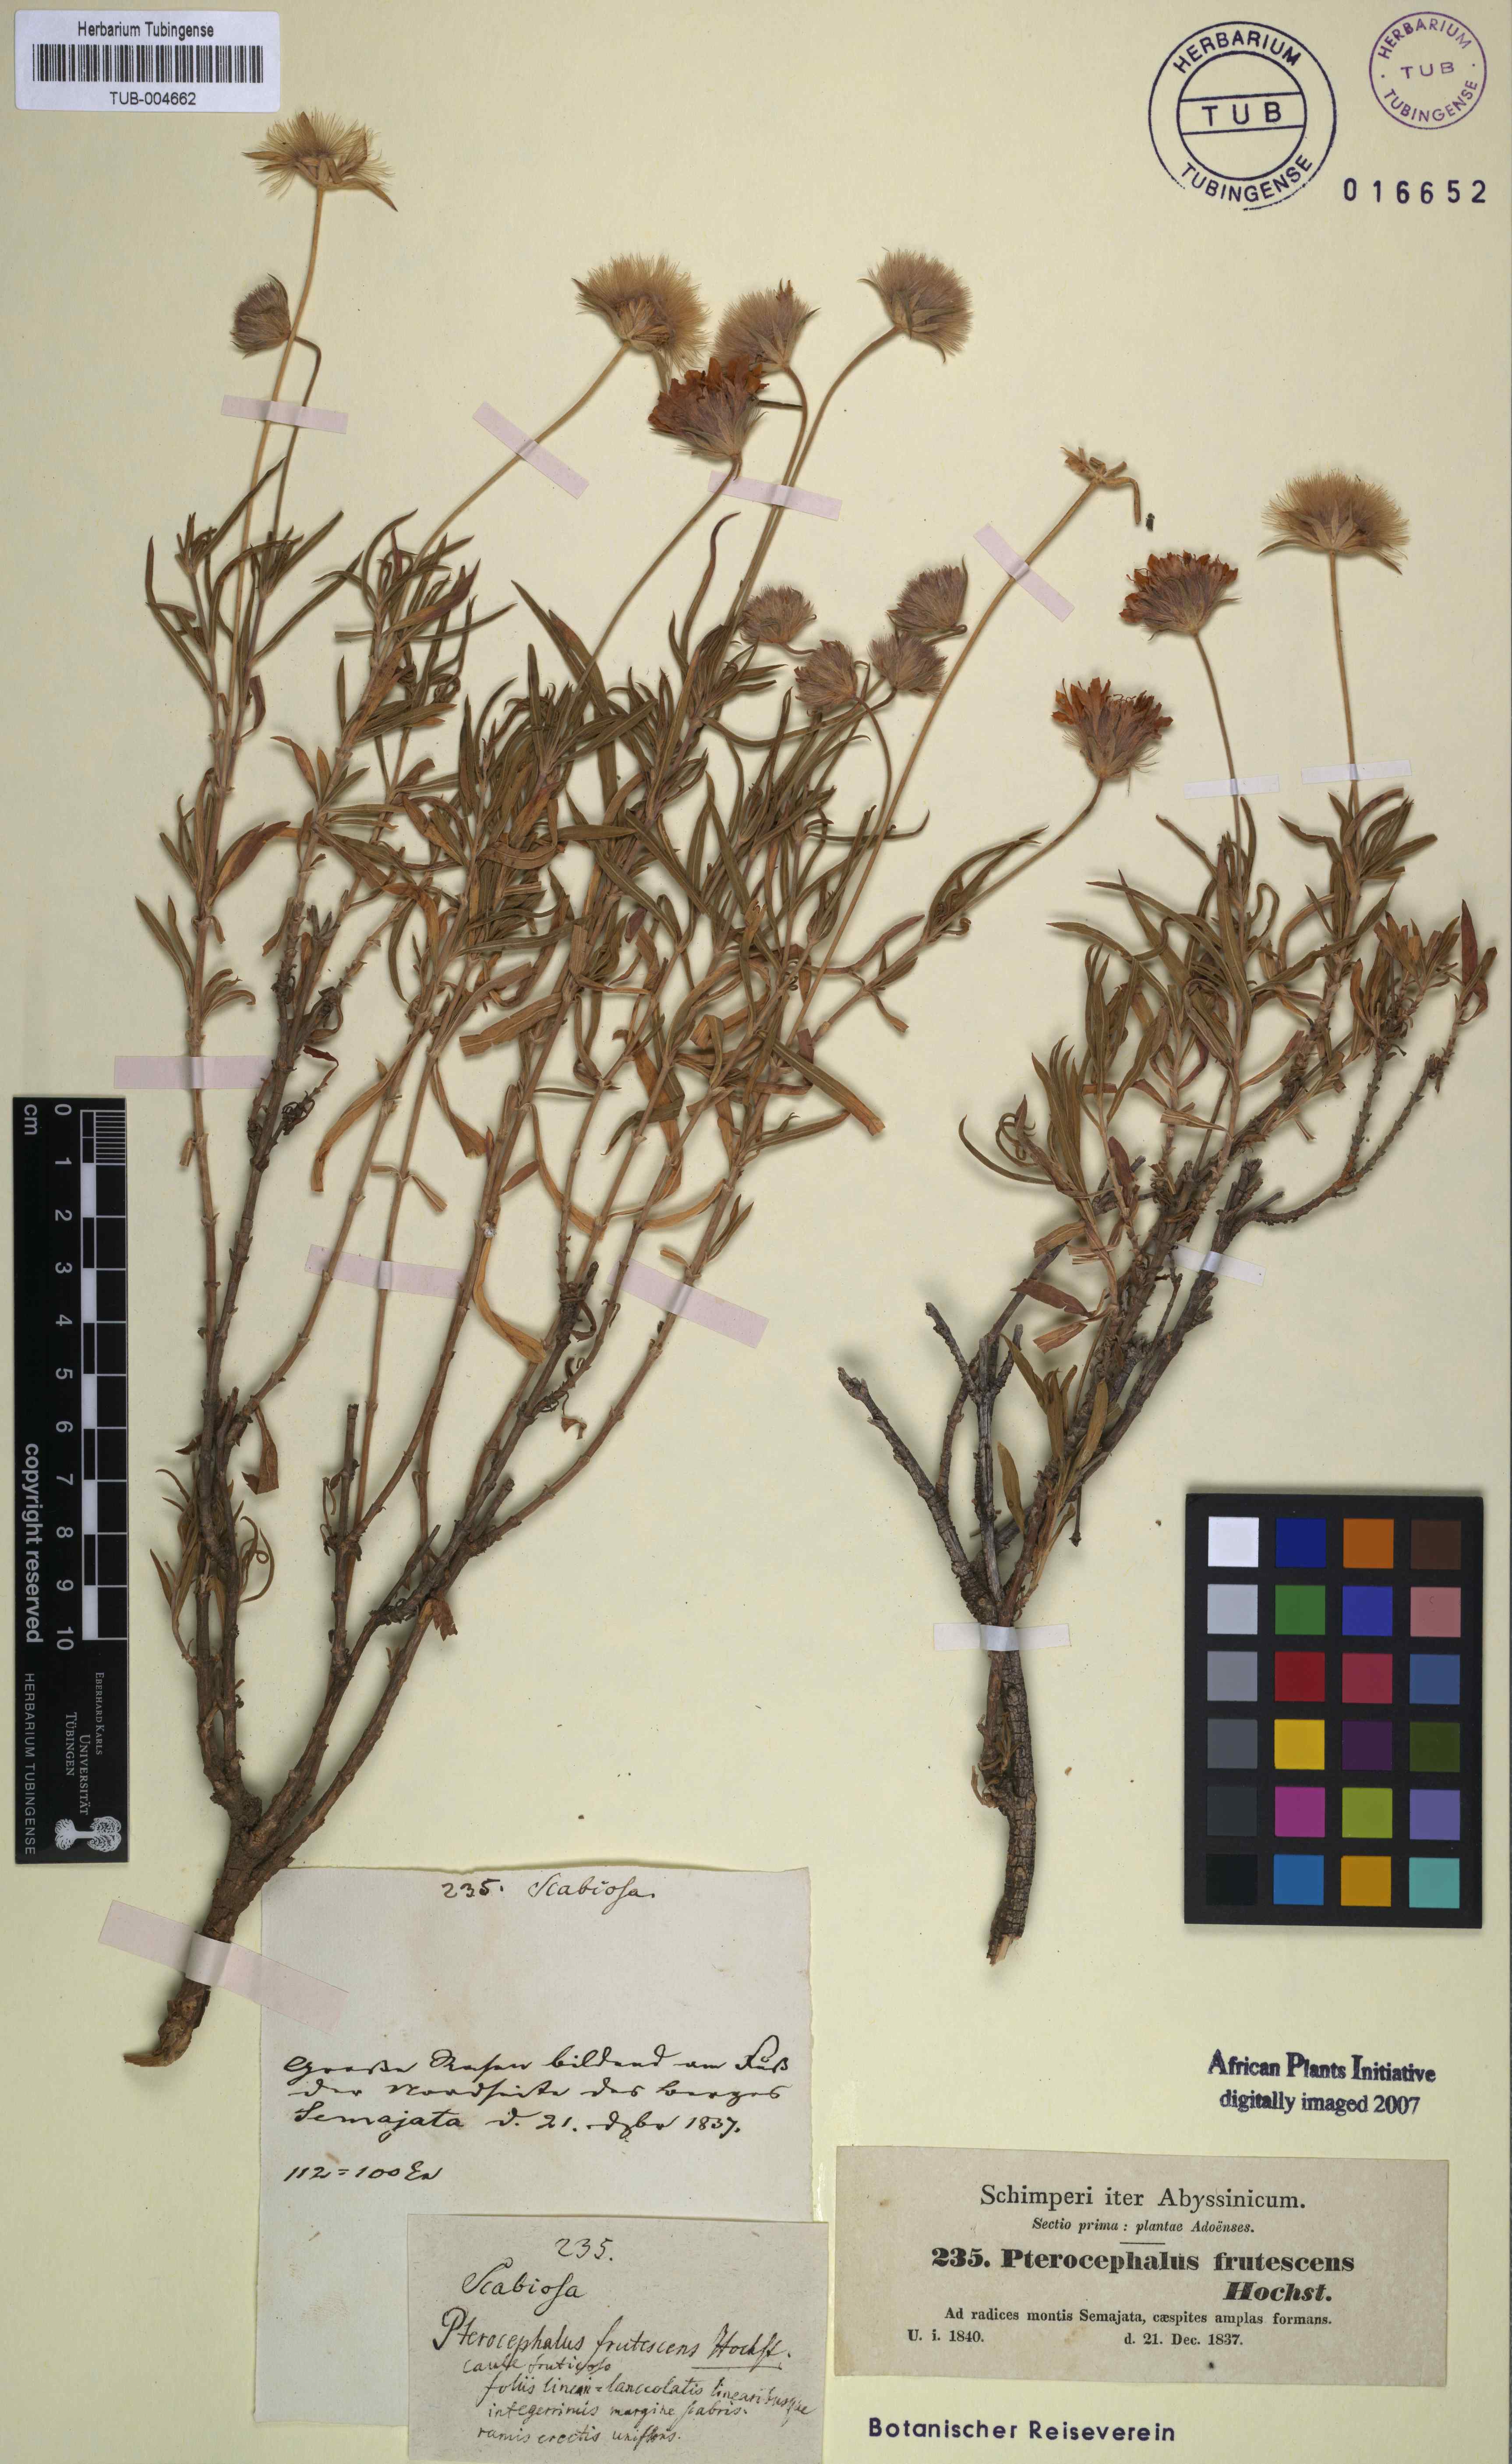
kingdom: Plantae
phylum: Tracheophyta
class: Magnoliopsida
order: Dipsacales
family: Caprifoliaceae
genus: Pterocephalus
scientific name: Pterocephalus frutescens
